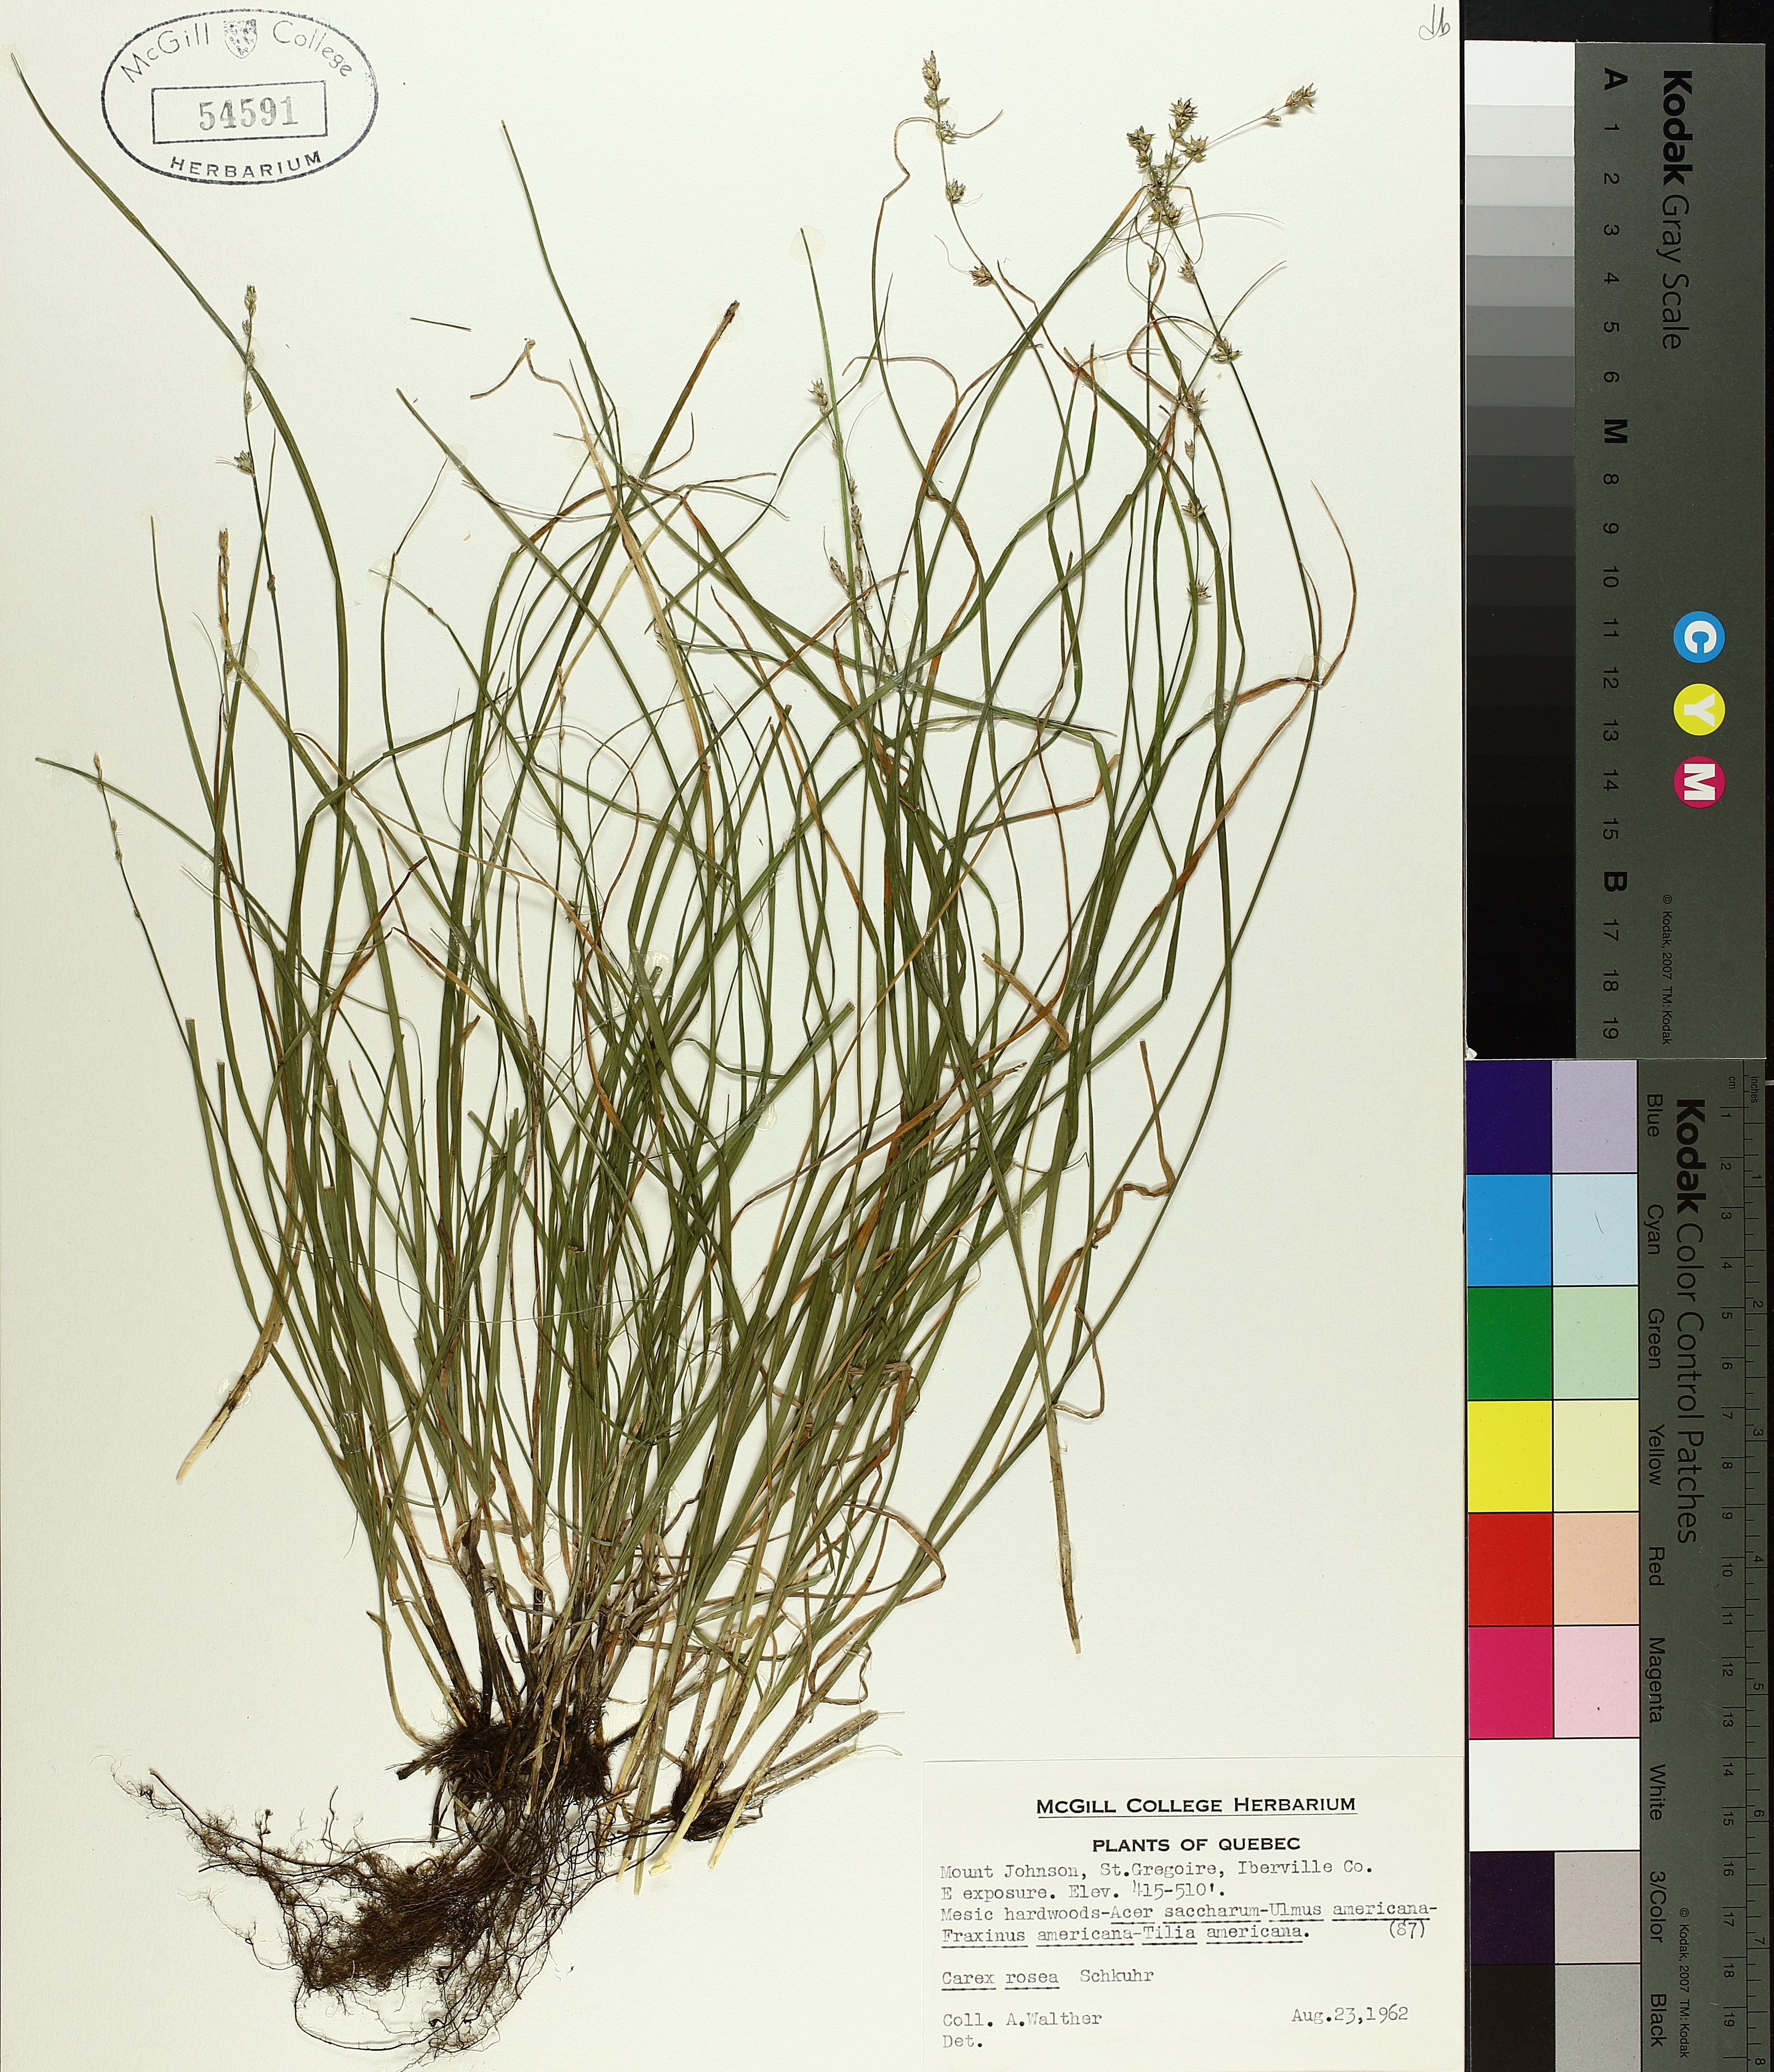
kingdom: Plantae
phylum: Tracheophyta
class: Liliopsida
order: Poales
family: Cyperaceae
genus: Carex
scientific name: Carex rosea
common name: Curly-styled wood sedge
